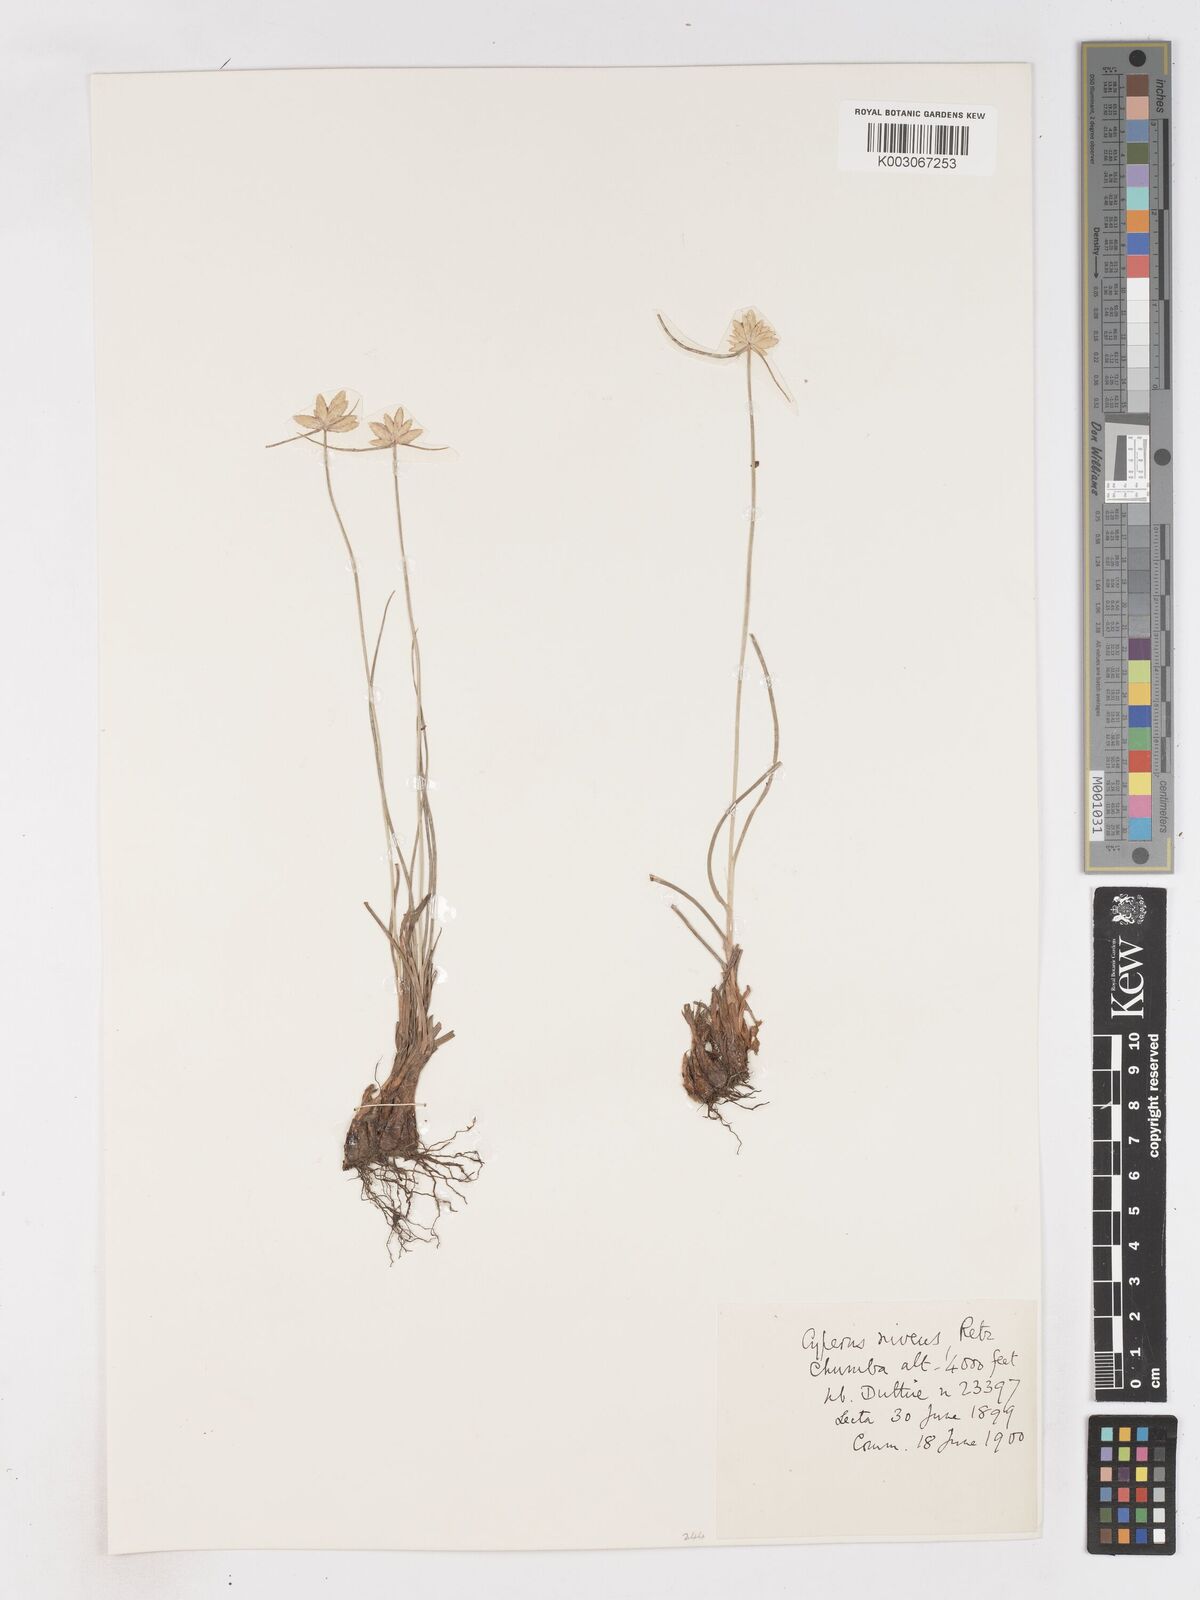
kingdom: Plantae
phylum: Tracheophyta
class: Liliopsida
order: Poales
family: Cyperaceae
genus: Cyperus
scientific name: Cyperus niveus
